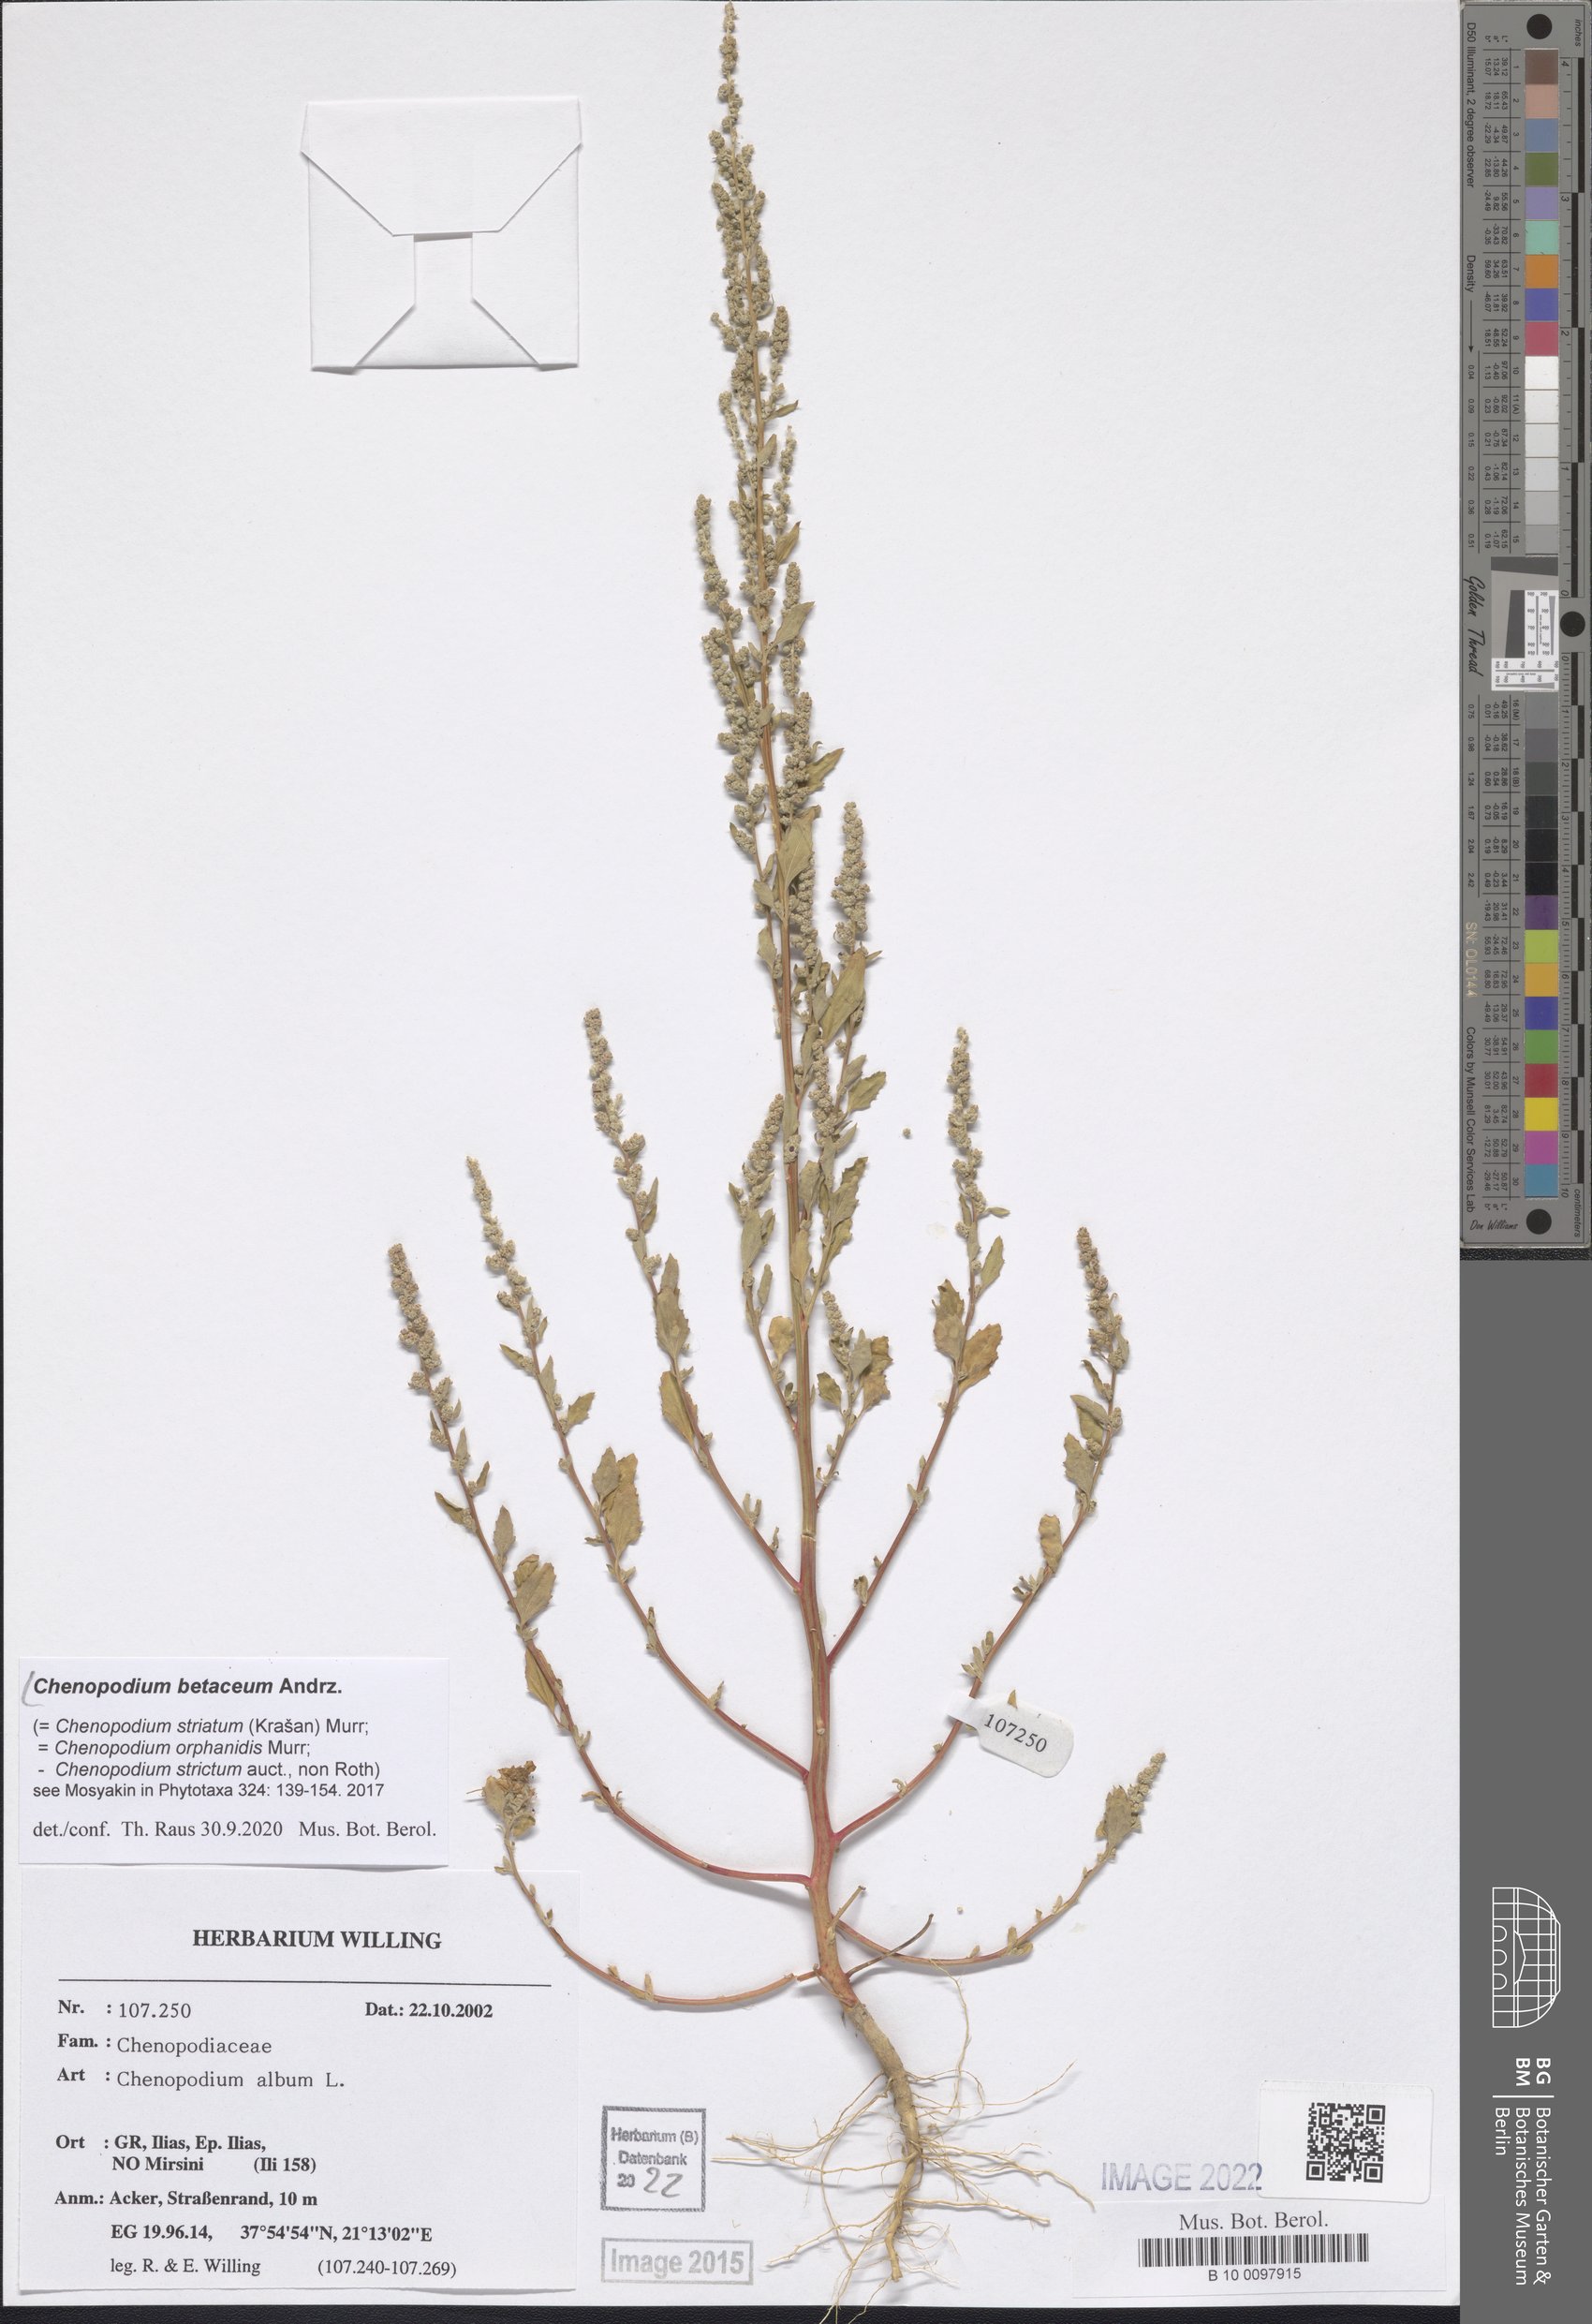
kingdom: Plantae
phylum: Tracheophyta
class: Magnoliopsida
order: Caryophyllales
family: Amaranthaceae
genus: Chenopodium
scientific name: Chenopodium betaceum
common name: Striped goosefoot
